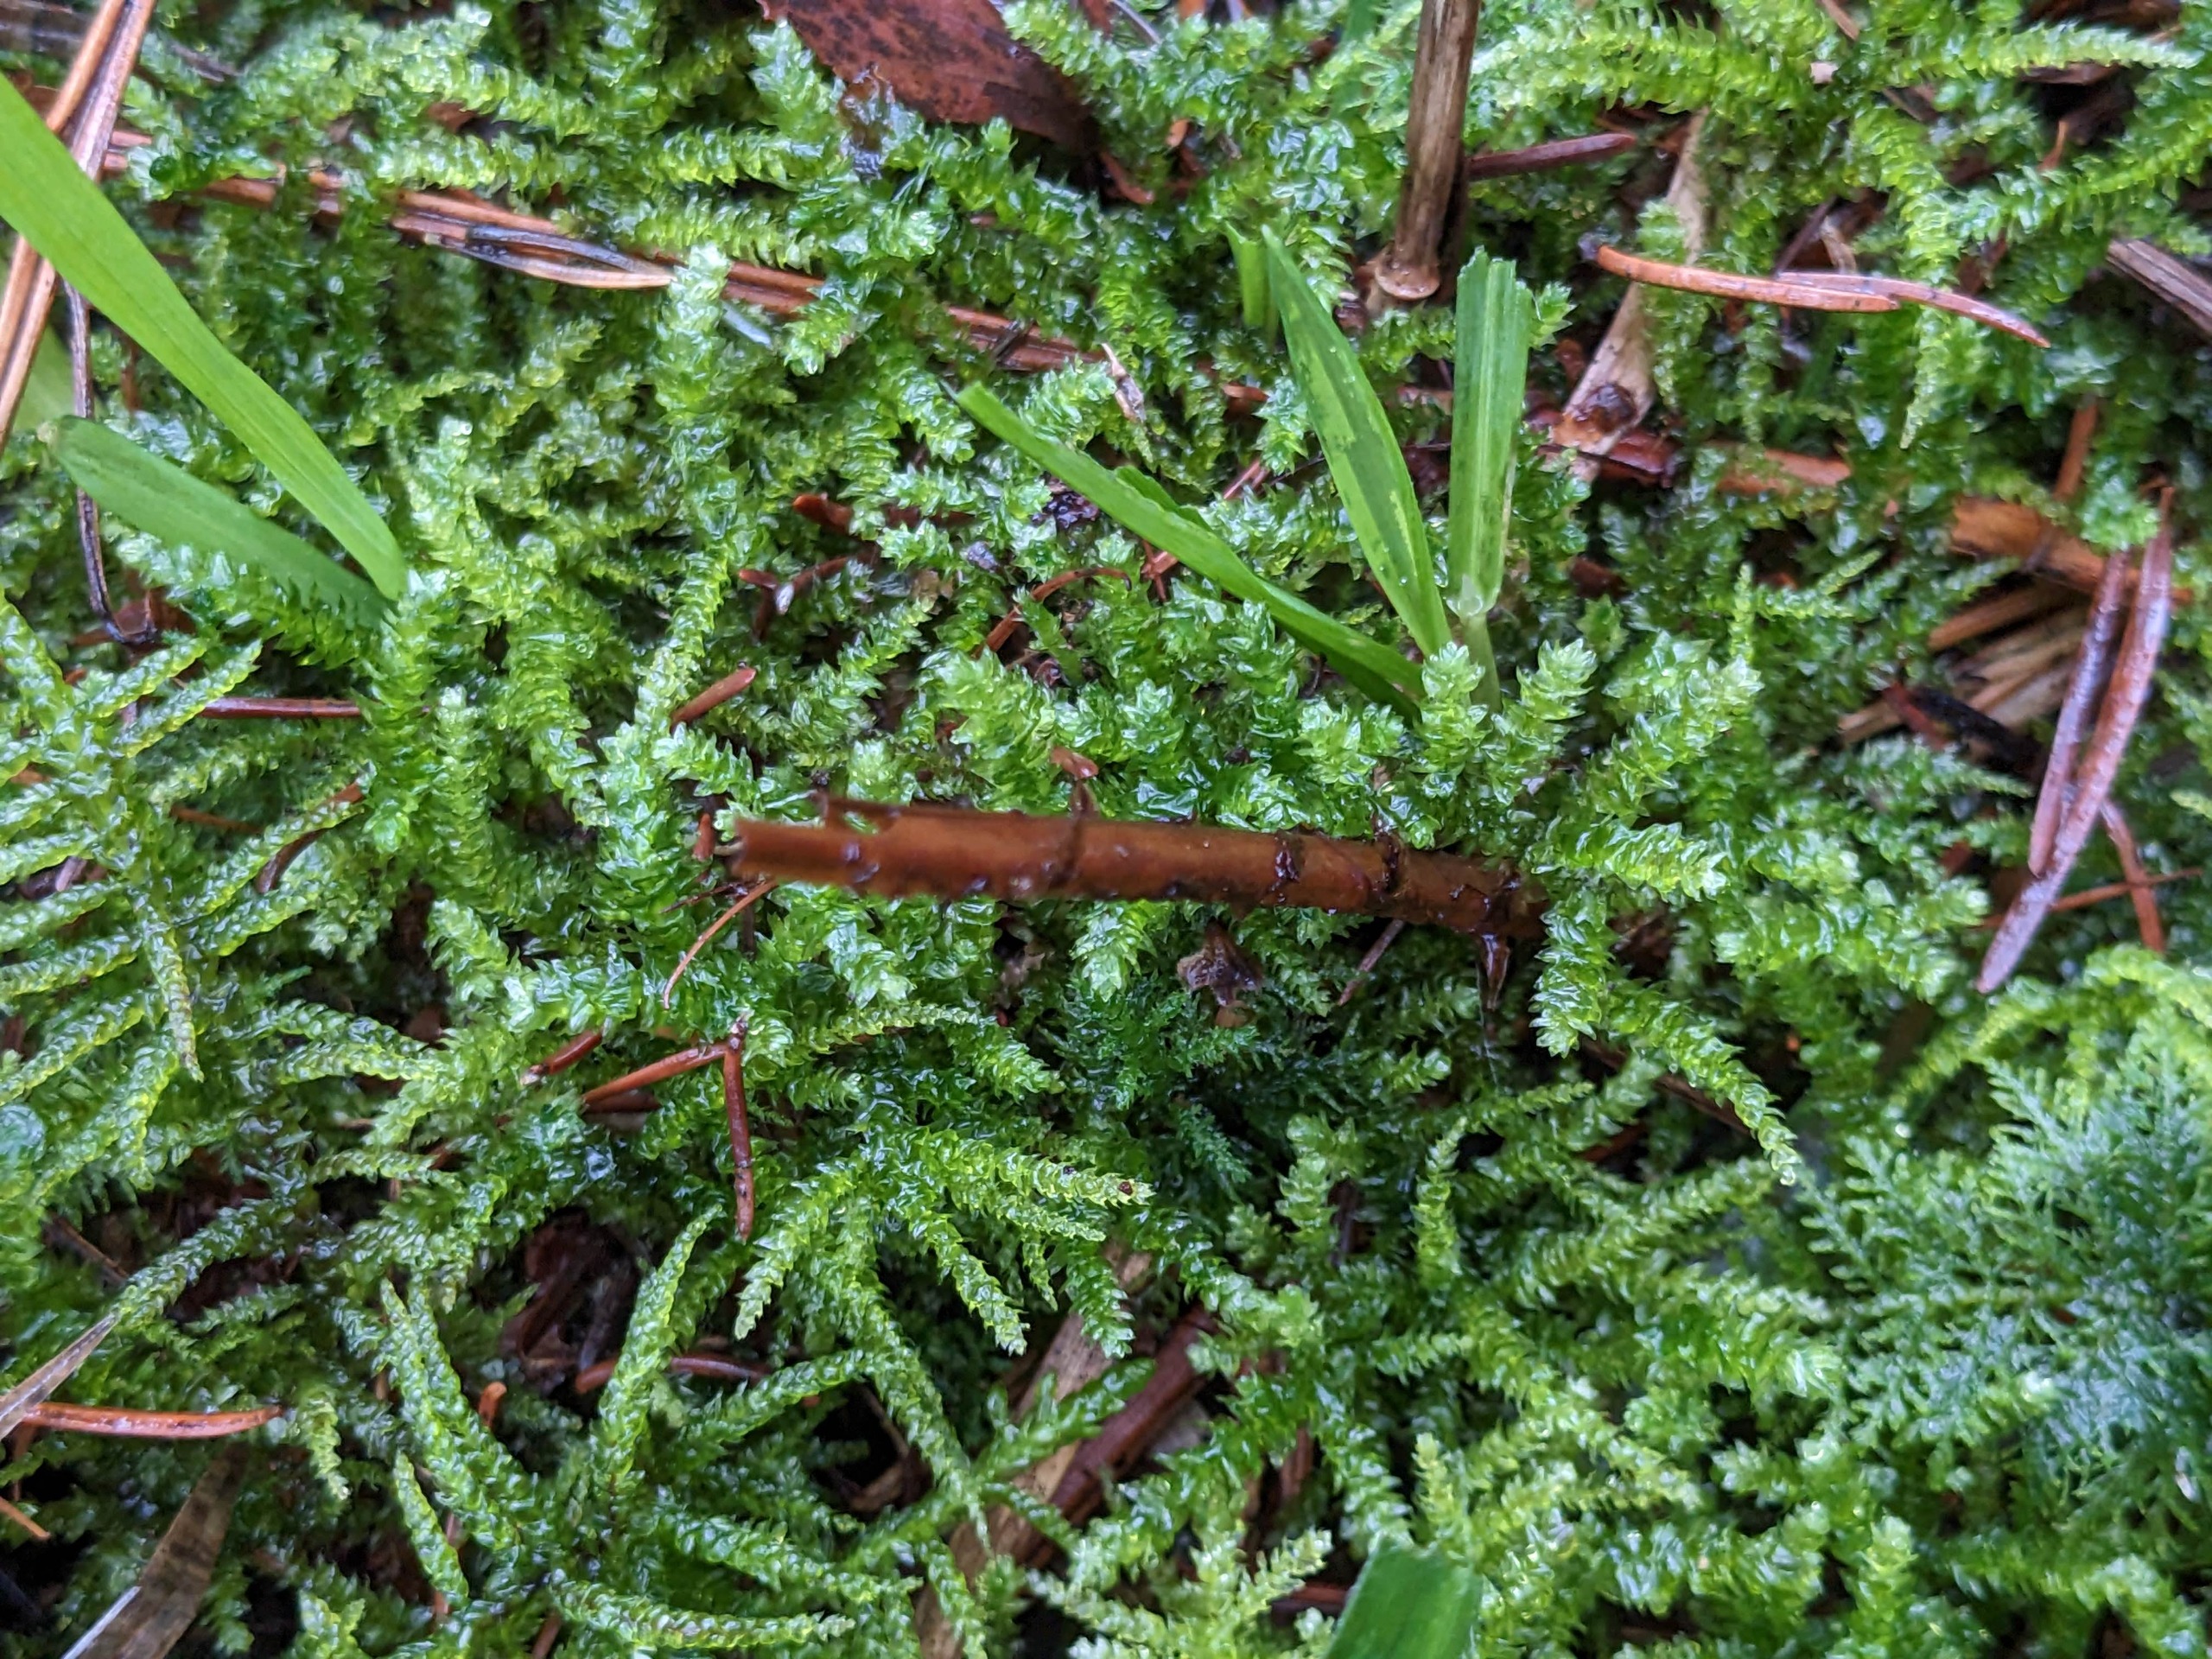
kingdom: Plantae
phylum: Bryophyta
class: Bryopsida
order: Hypnales
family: Brachytheciaceae
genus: Eurhynchium
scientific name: Eurhynchium angustirete
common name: Stor næbmos
